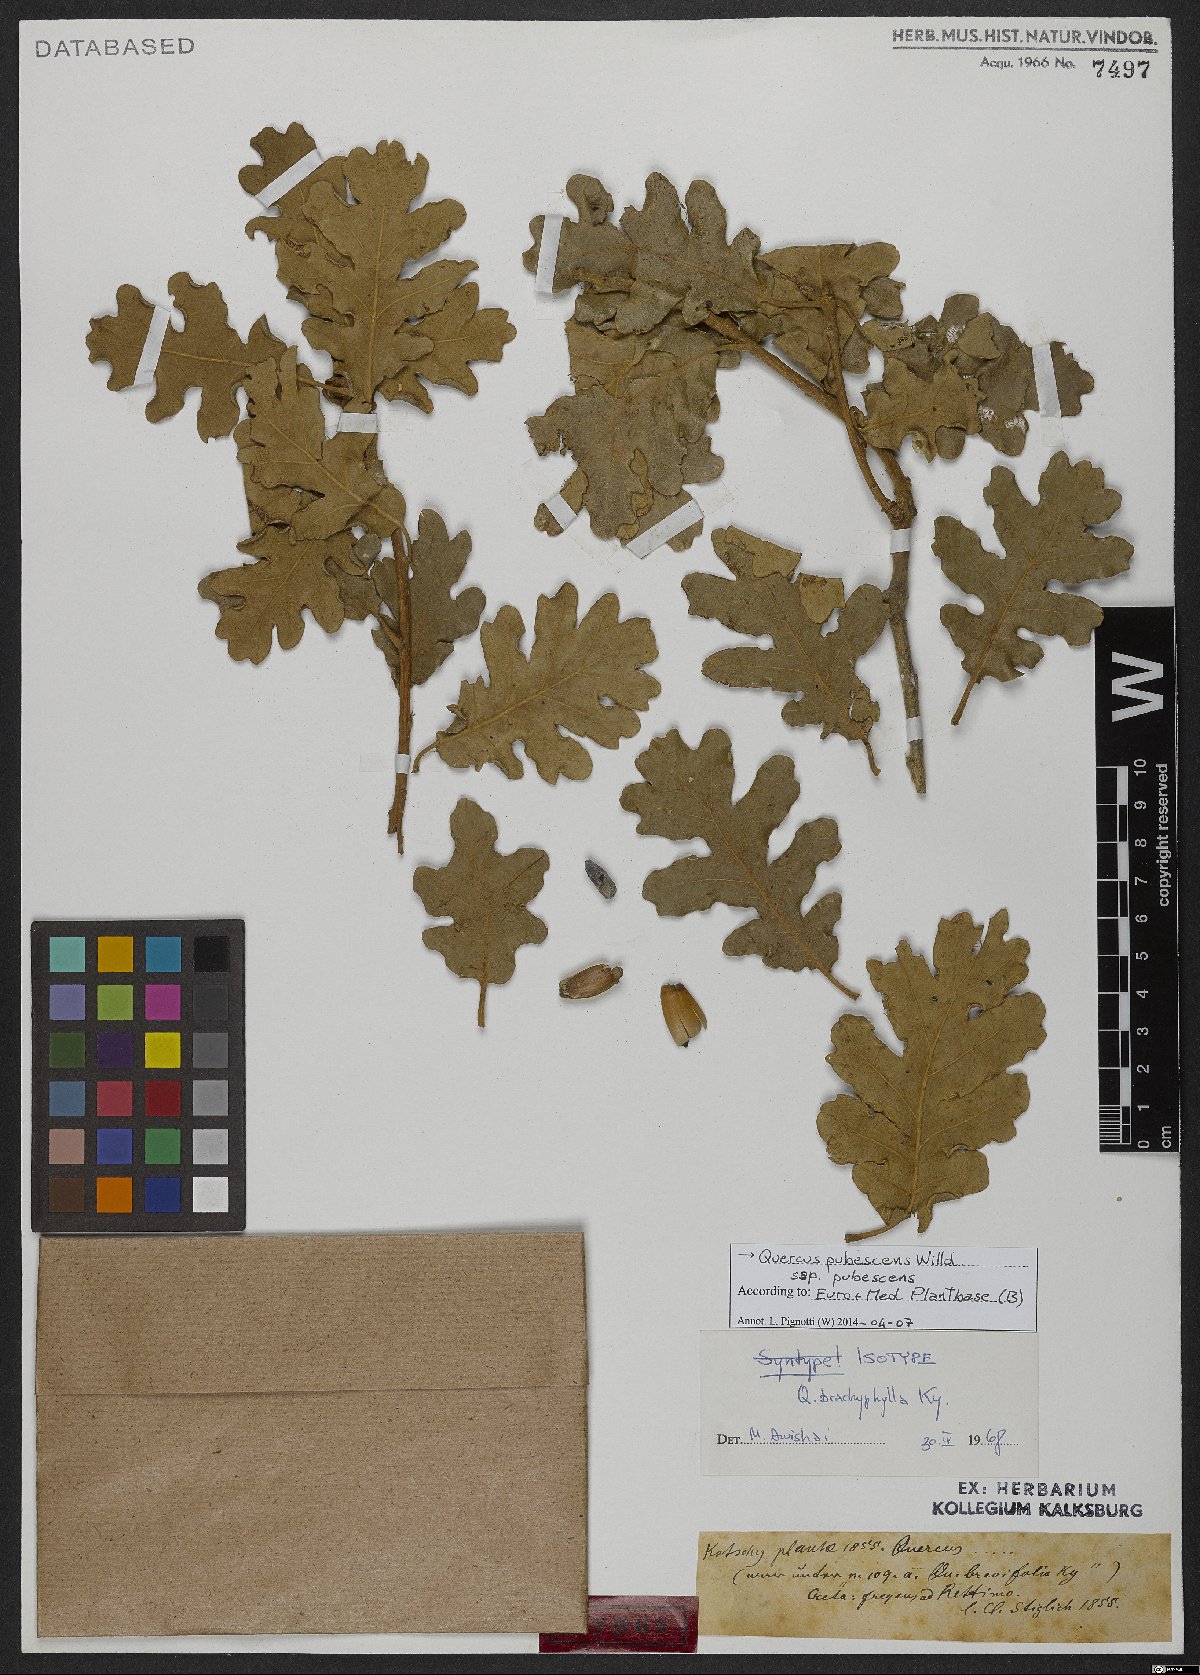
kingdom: Plantae
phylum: Tracheophyta
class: Magnoliopsida
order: Fagales
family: Fagaceae
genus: Quercus
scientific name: Quercus pubescens
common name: Downy oak
